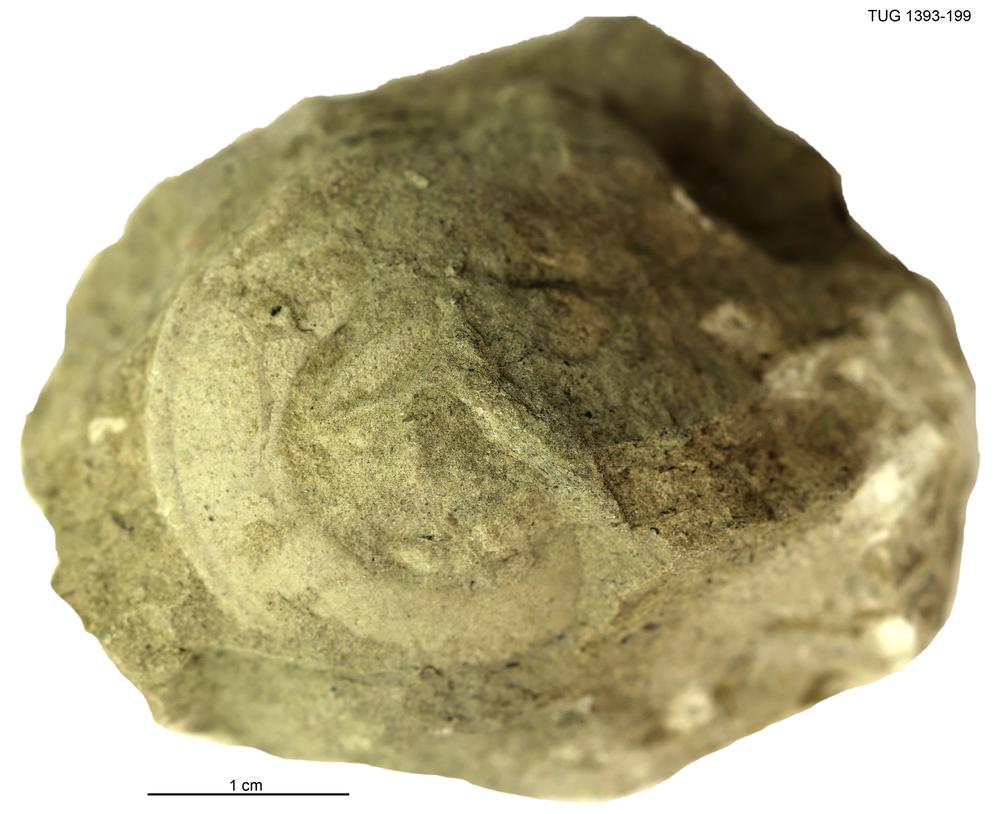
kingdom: Animalia
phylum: Mollusca
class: Gastropoda
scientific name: Gastropoda
